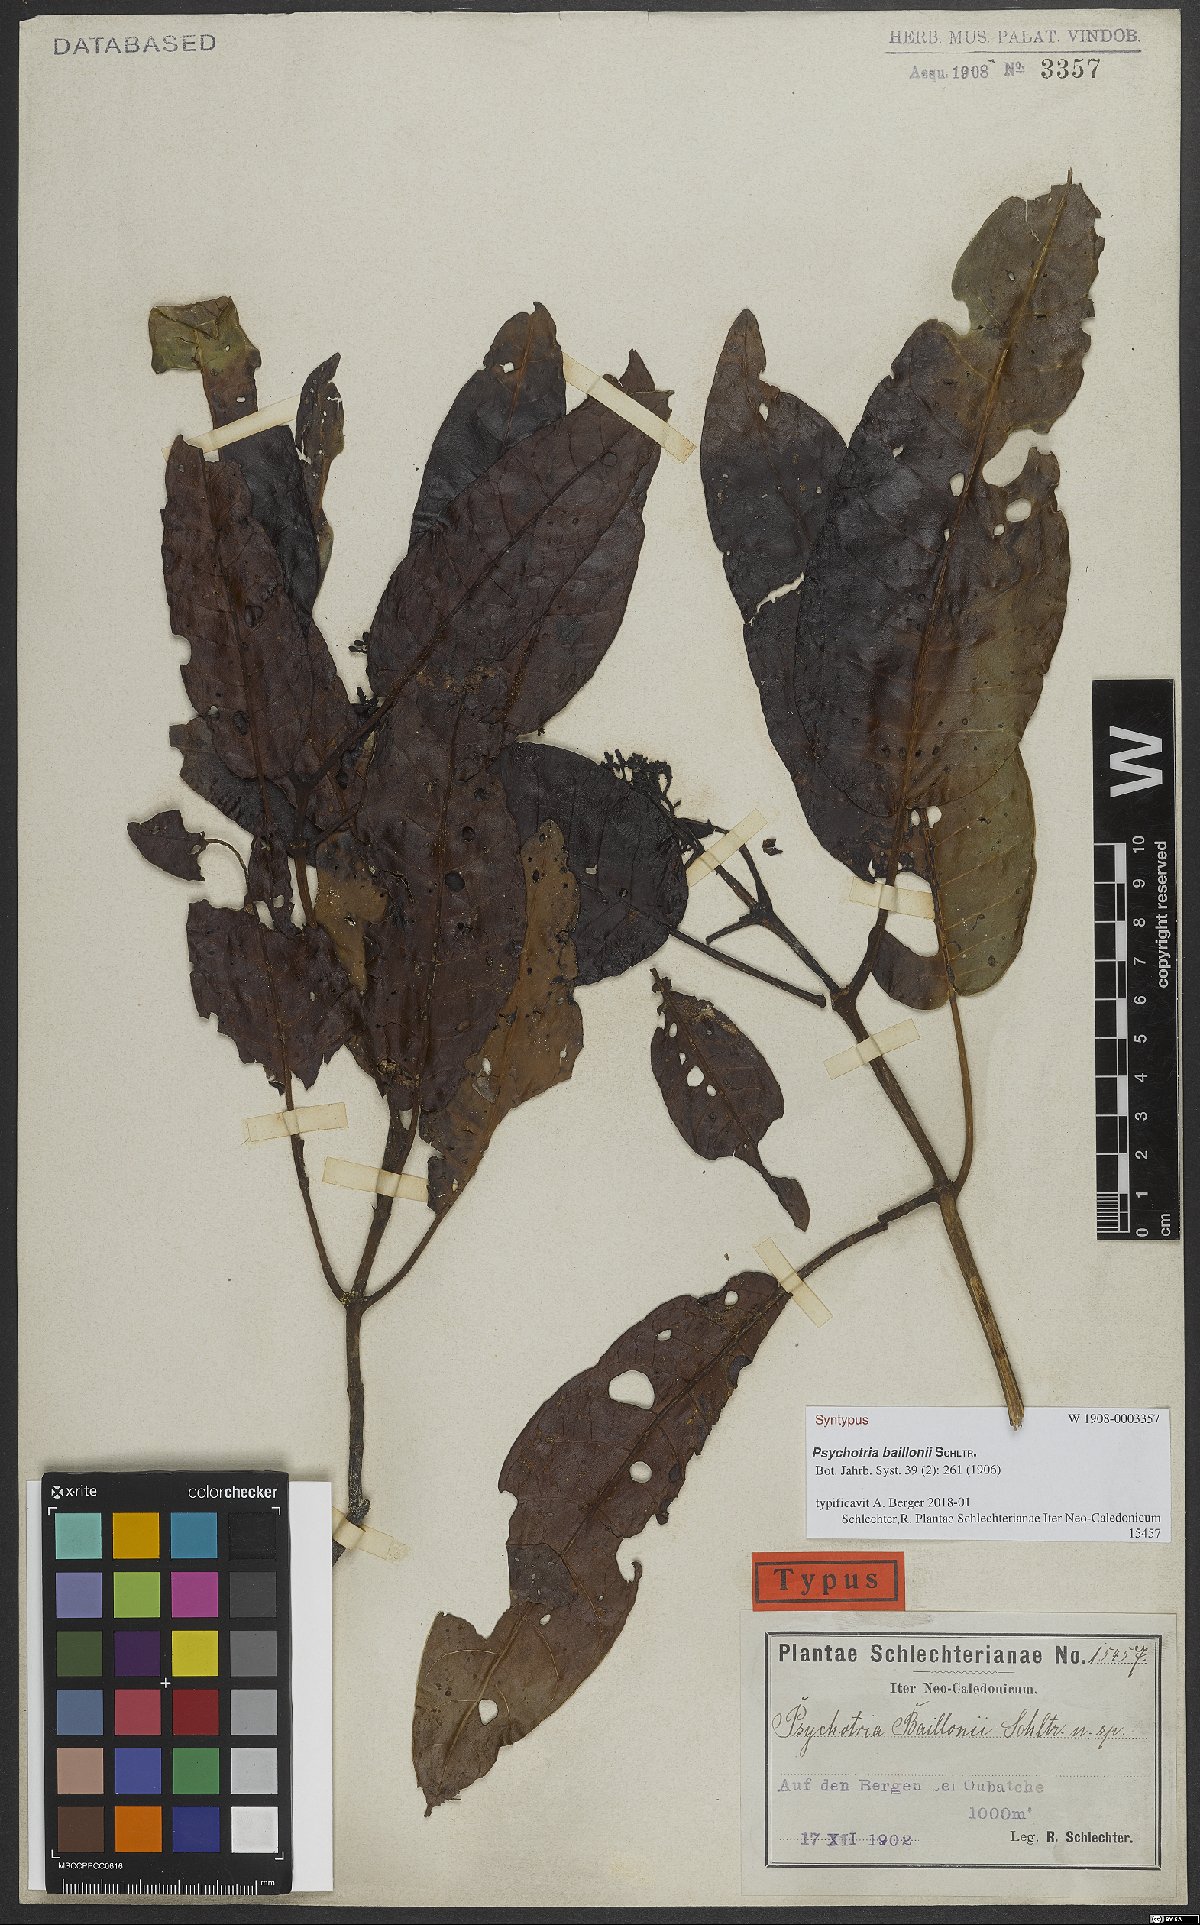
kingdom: Plantae
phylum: Tracheophyta
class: Magnoliopsida
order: Gentianales
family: Rubiaceae
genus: Psychotria
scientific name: Psychotria baillonii
